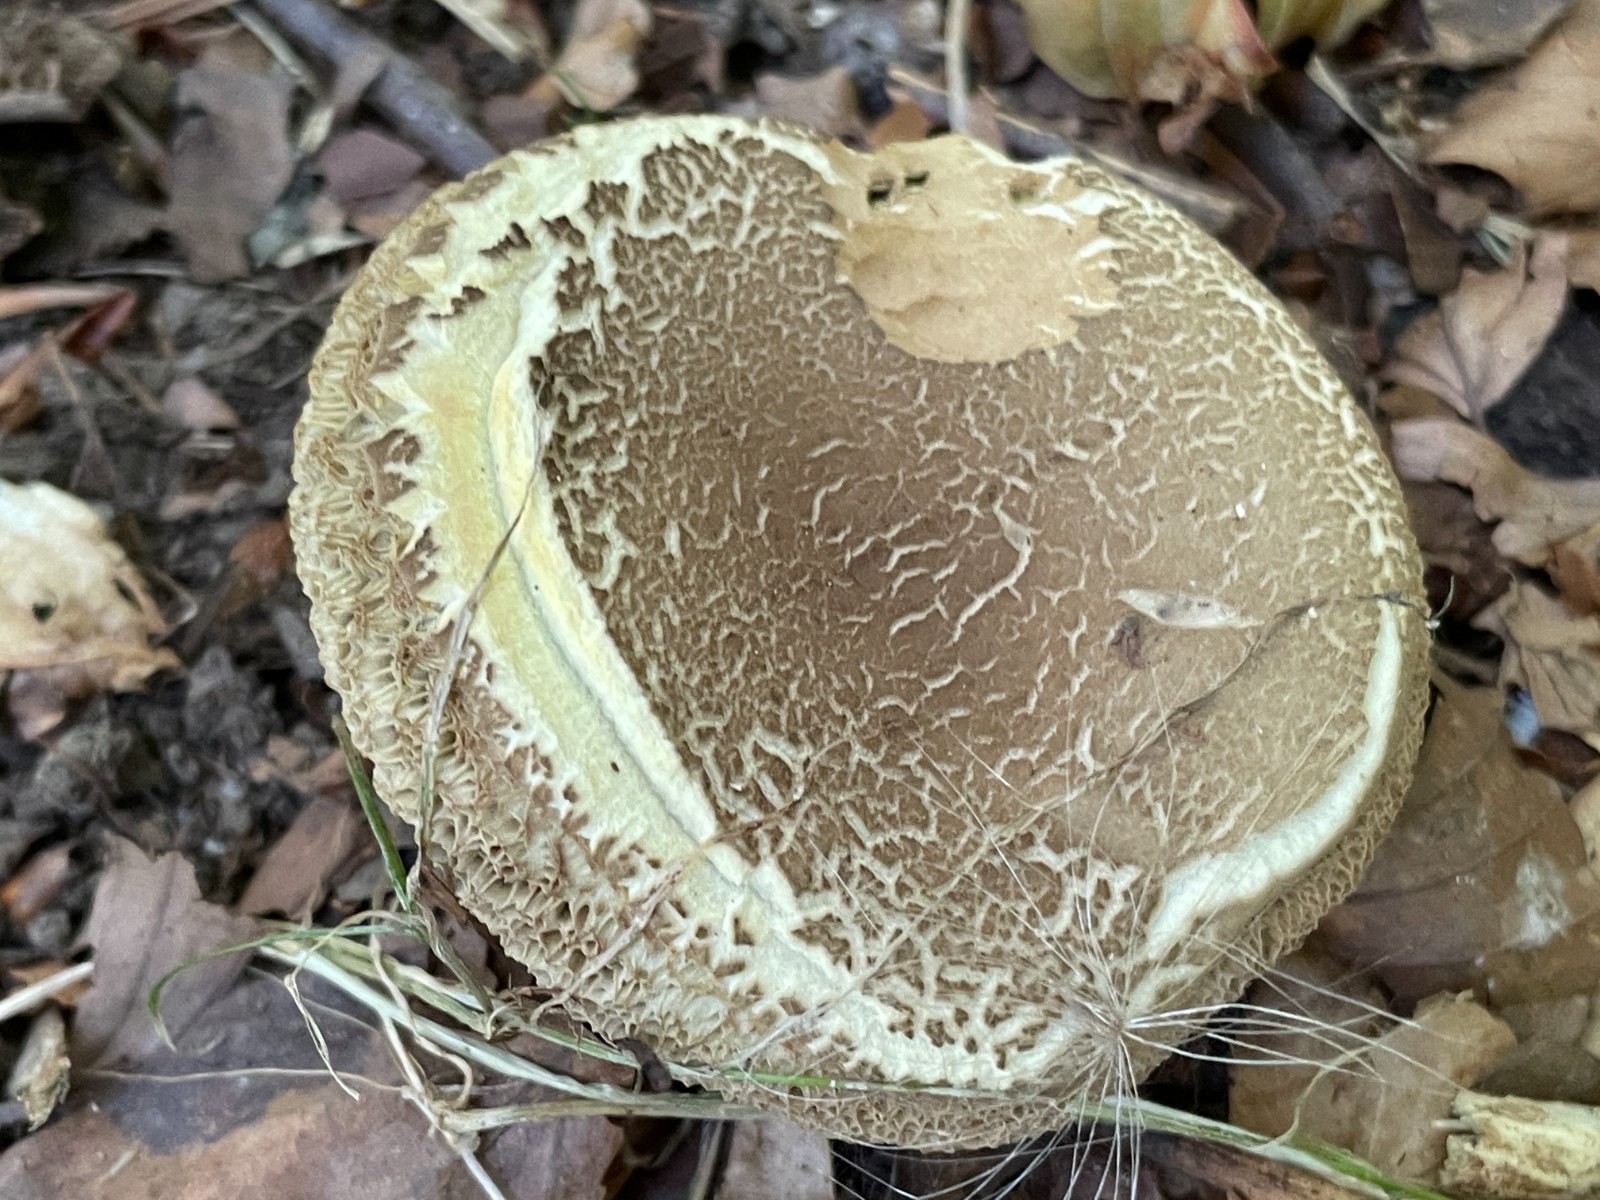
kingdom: Fungi
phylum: Basidiomycota
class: Agaricomycetes
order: Boletales
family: Boletaceae
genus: Xerocomellus
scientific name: Xerocomellus porosporus
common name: hvidsprukken rørhat
